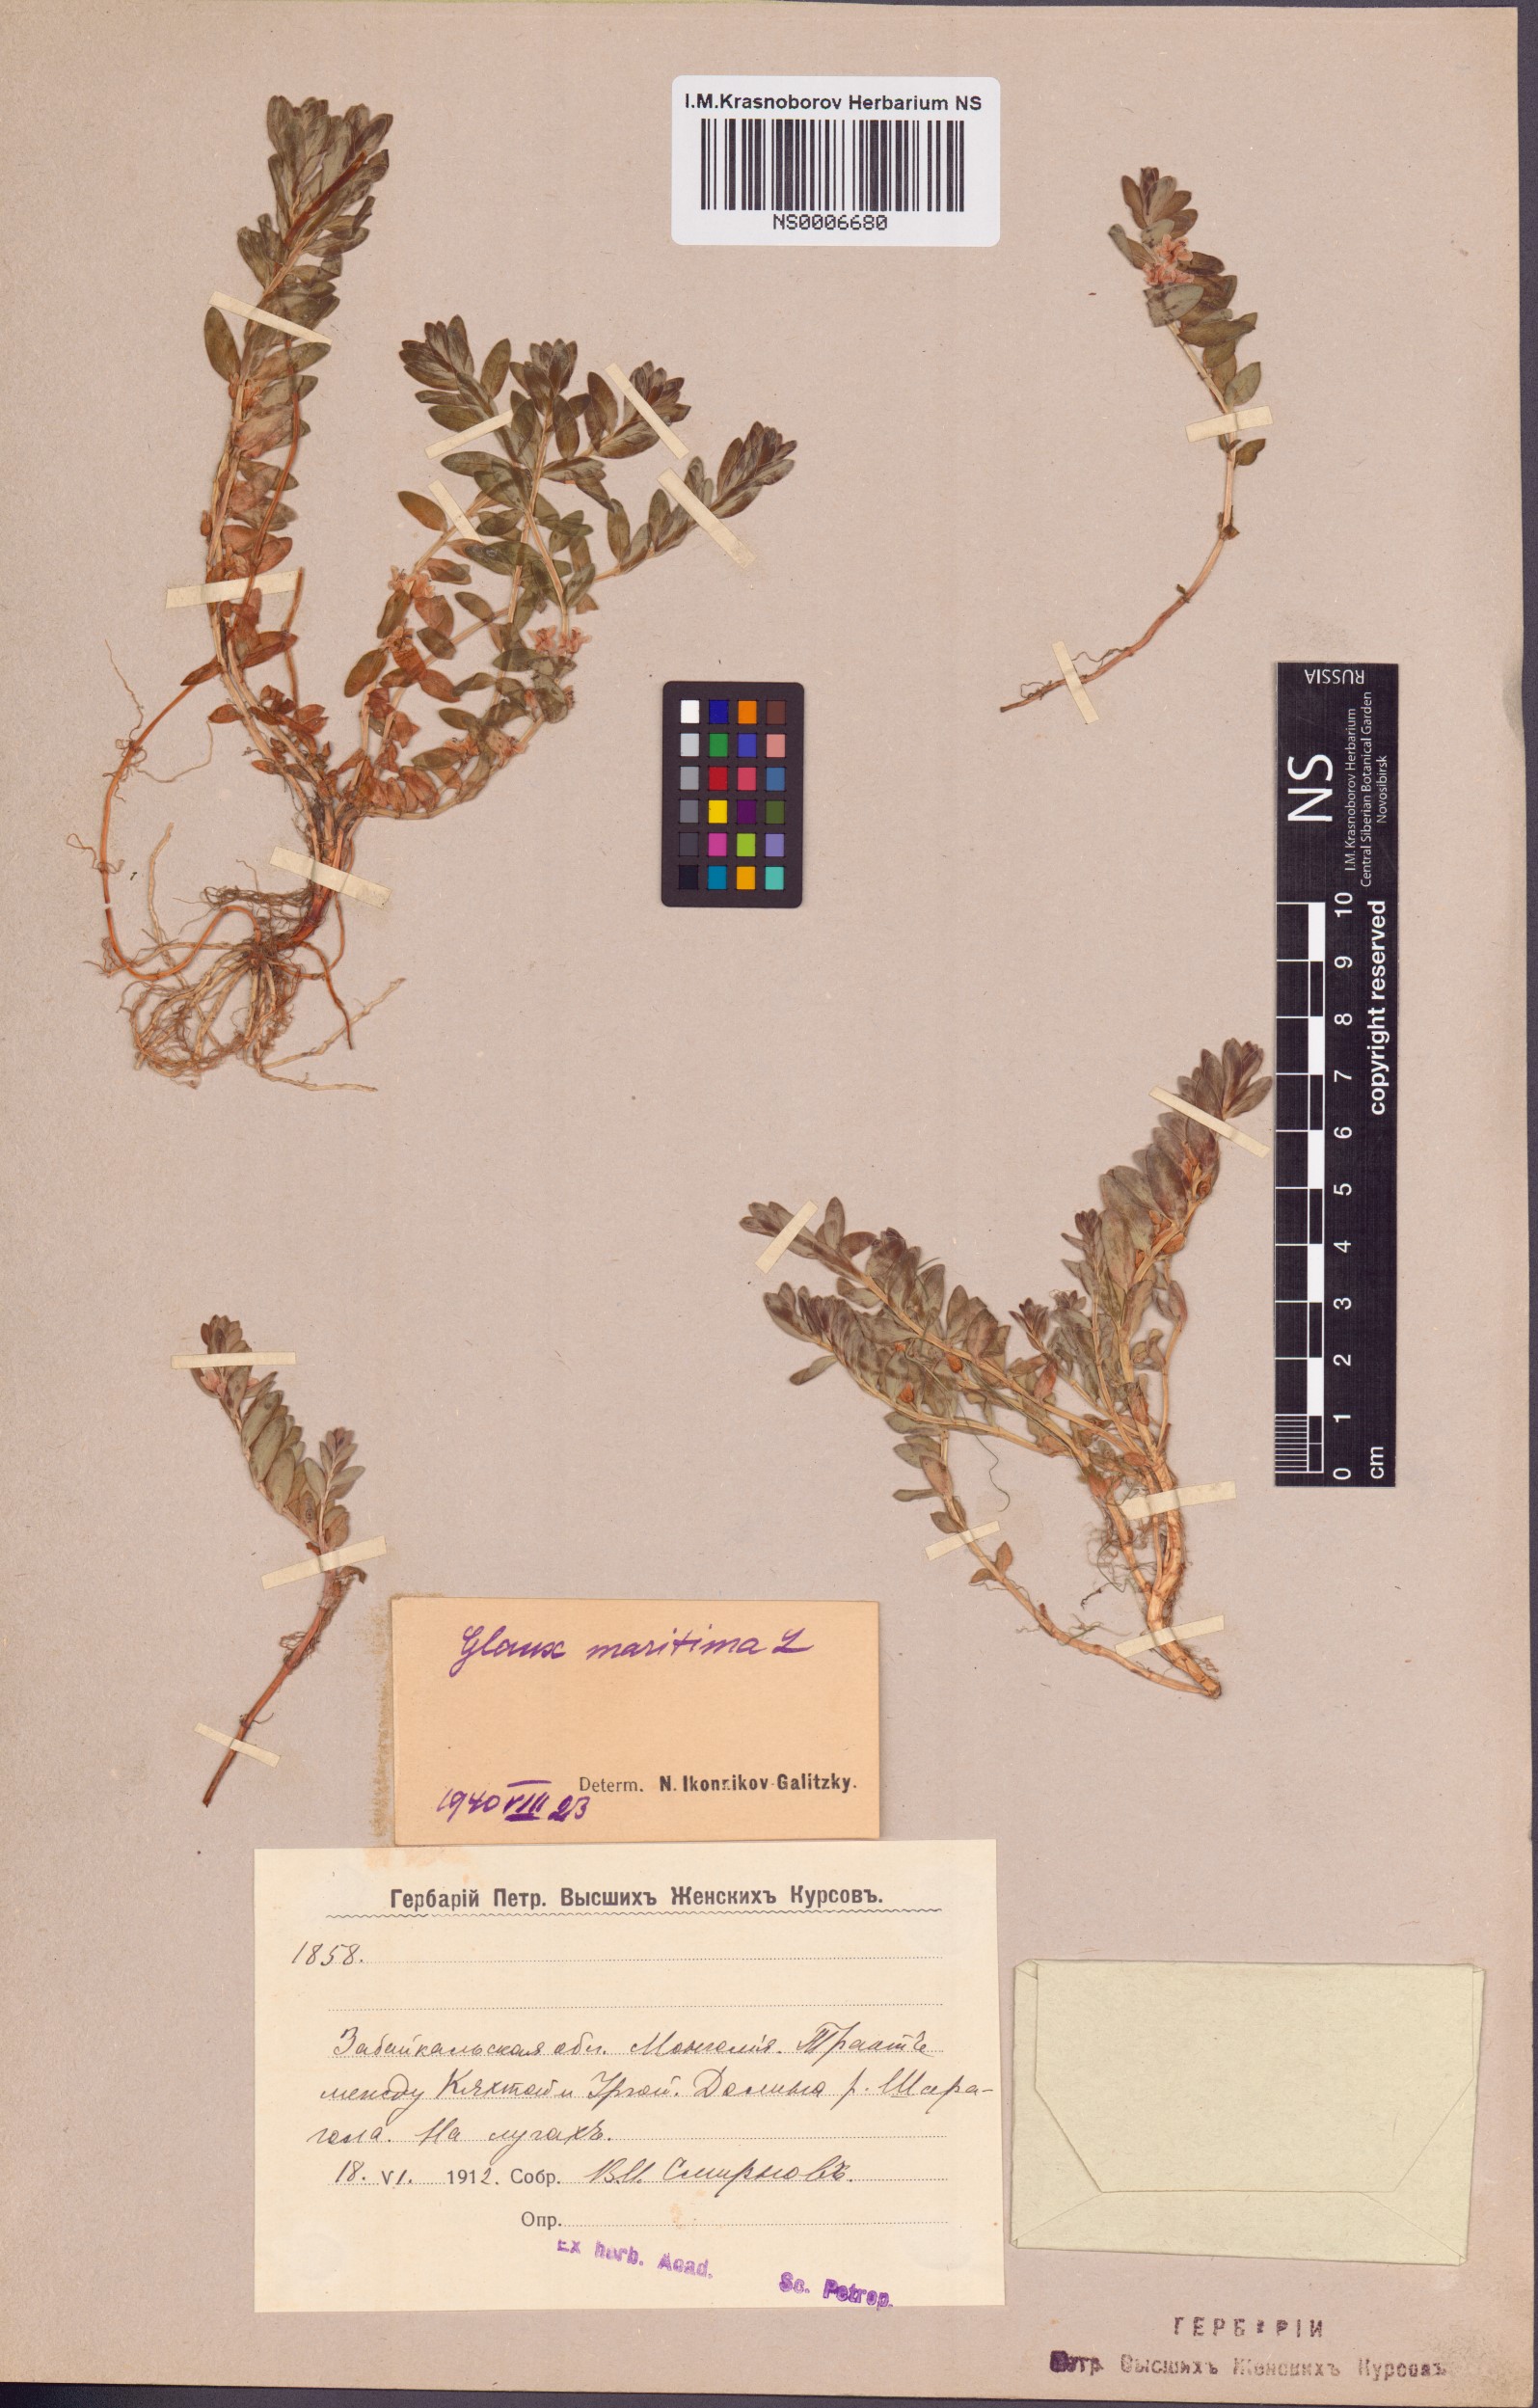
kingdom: Plantae
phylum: Tracheophyta
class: Magnoliopsida
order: Ericales
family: Primulaceae
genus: Lysimachia
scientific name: Lysimachia maritima
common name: Sea milkwort
